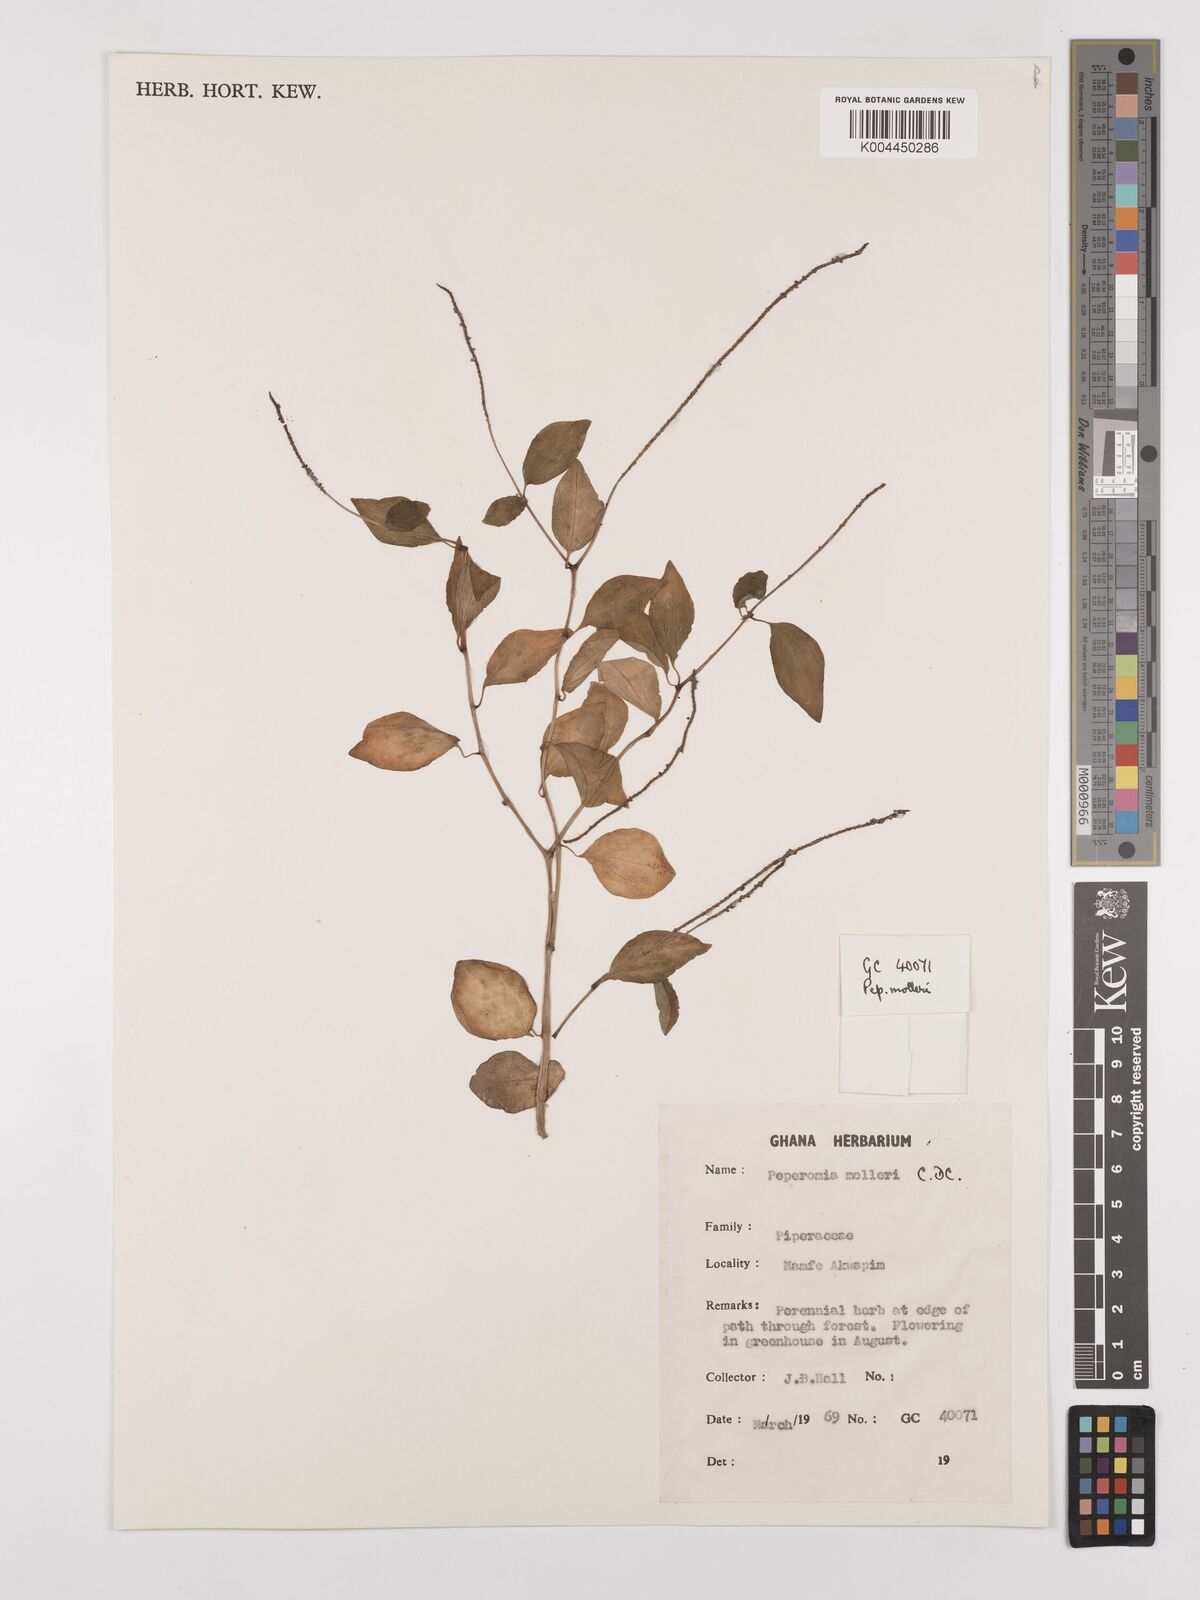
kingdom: Plantae
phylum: Tracheophyta
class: Magnoliopsida
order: Piperales
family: Piperaceae
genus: Peperomia
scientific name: Peperomia molleri
